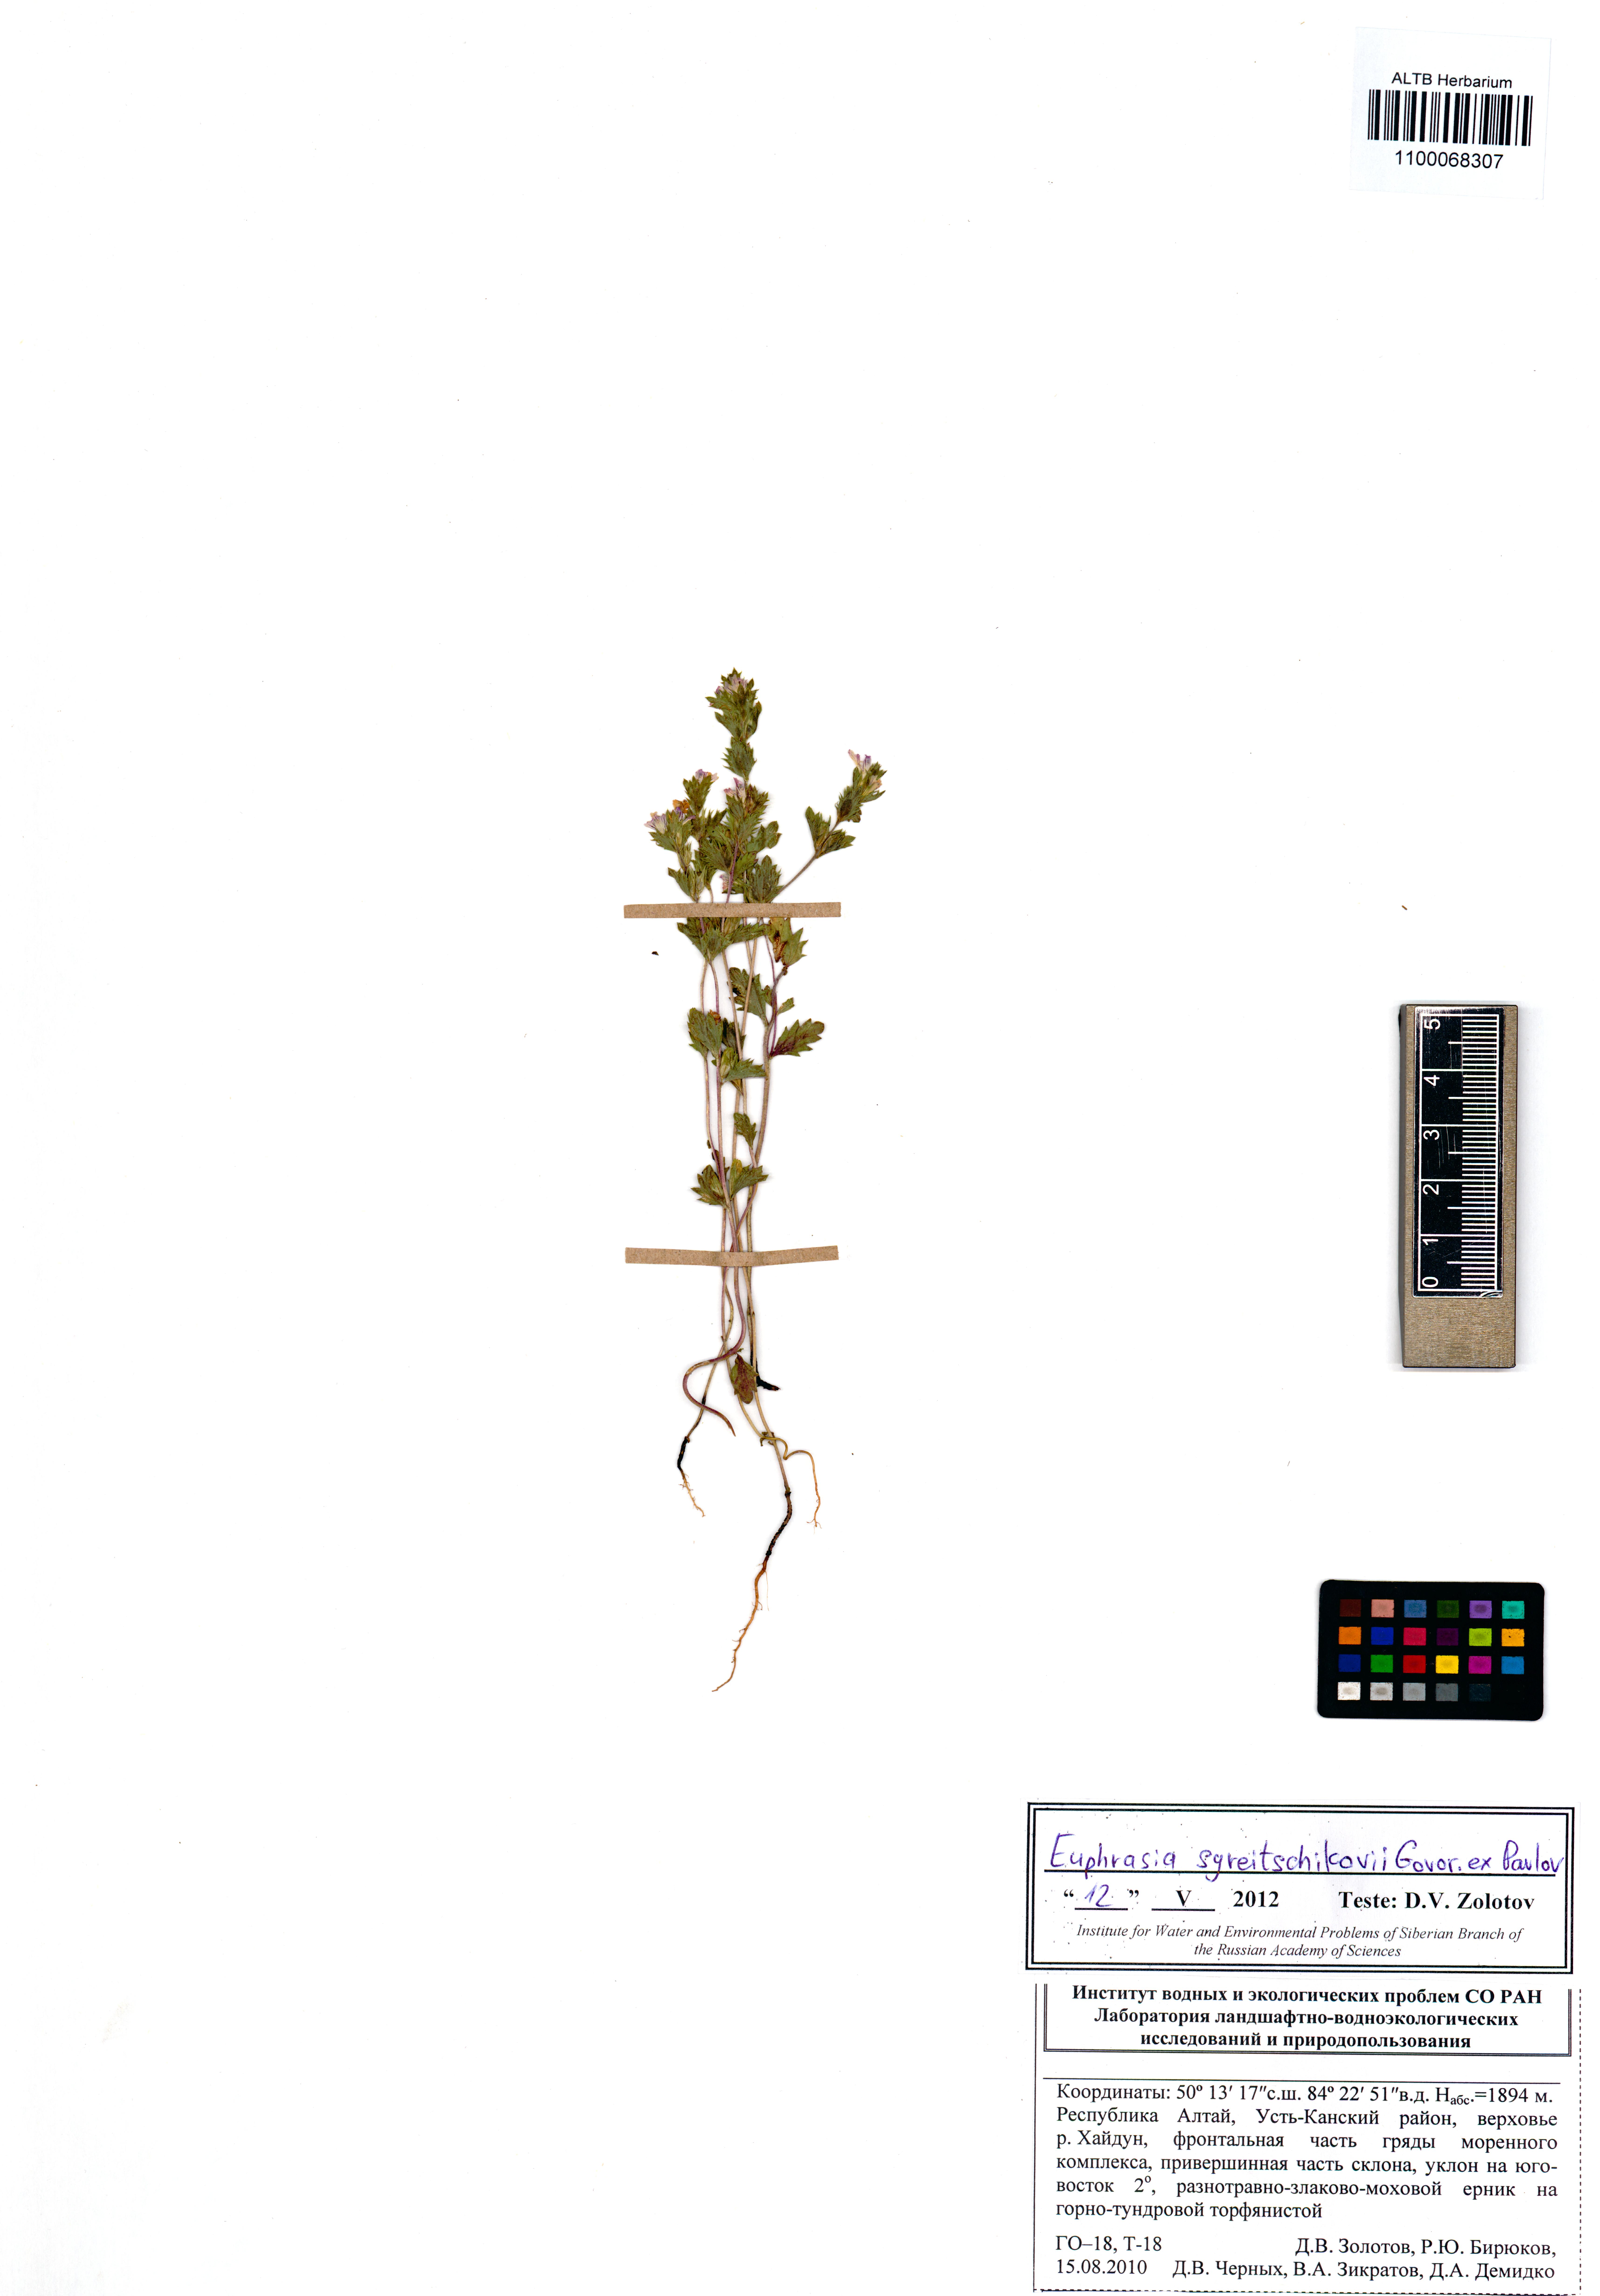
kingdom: Plantae
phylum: Tracheophyta
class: Magnoliopsida
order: Lamiales
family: Orobanchaceae
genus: Euphrasia
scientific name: Euphrasia syreitschikovii
